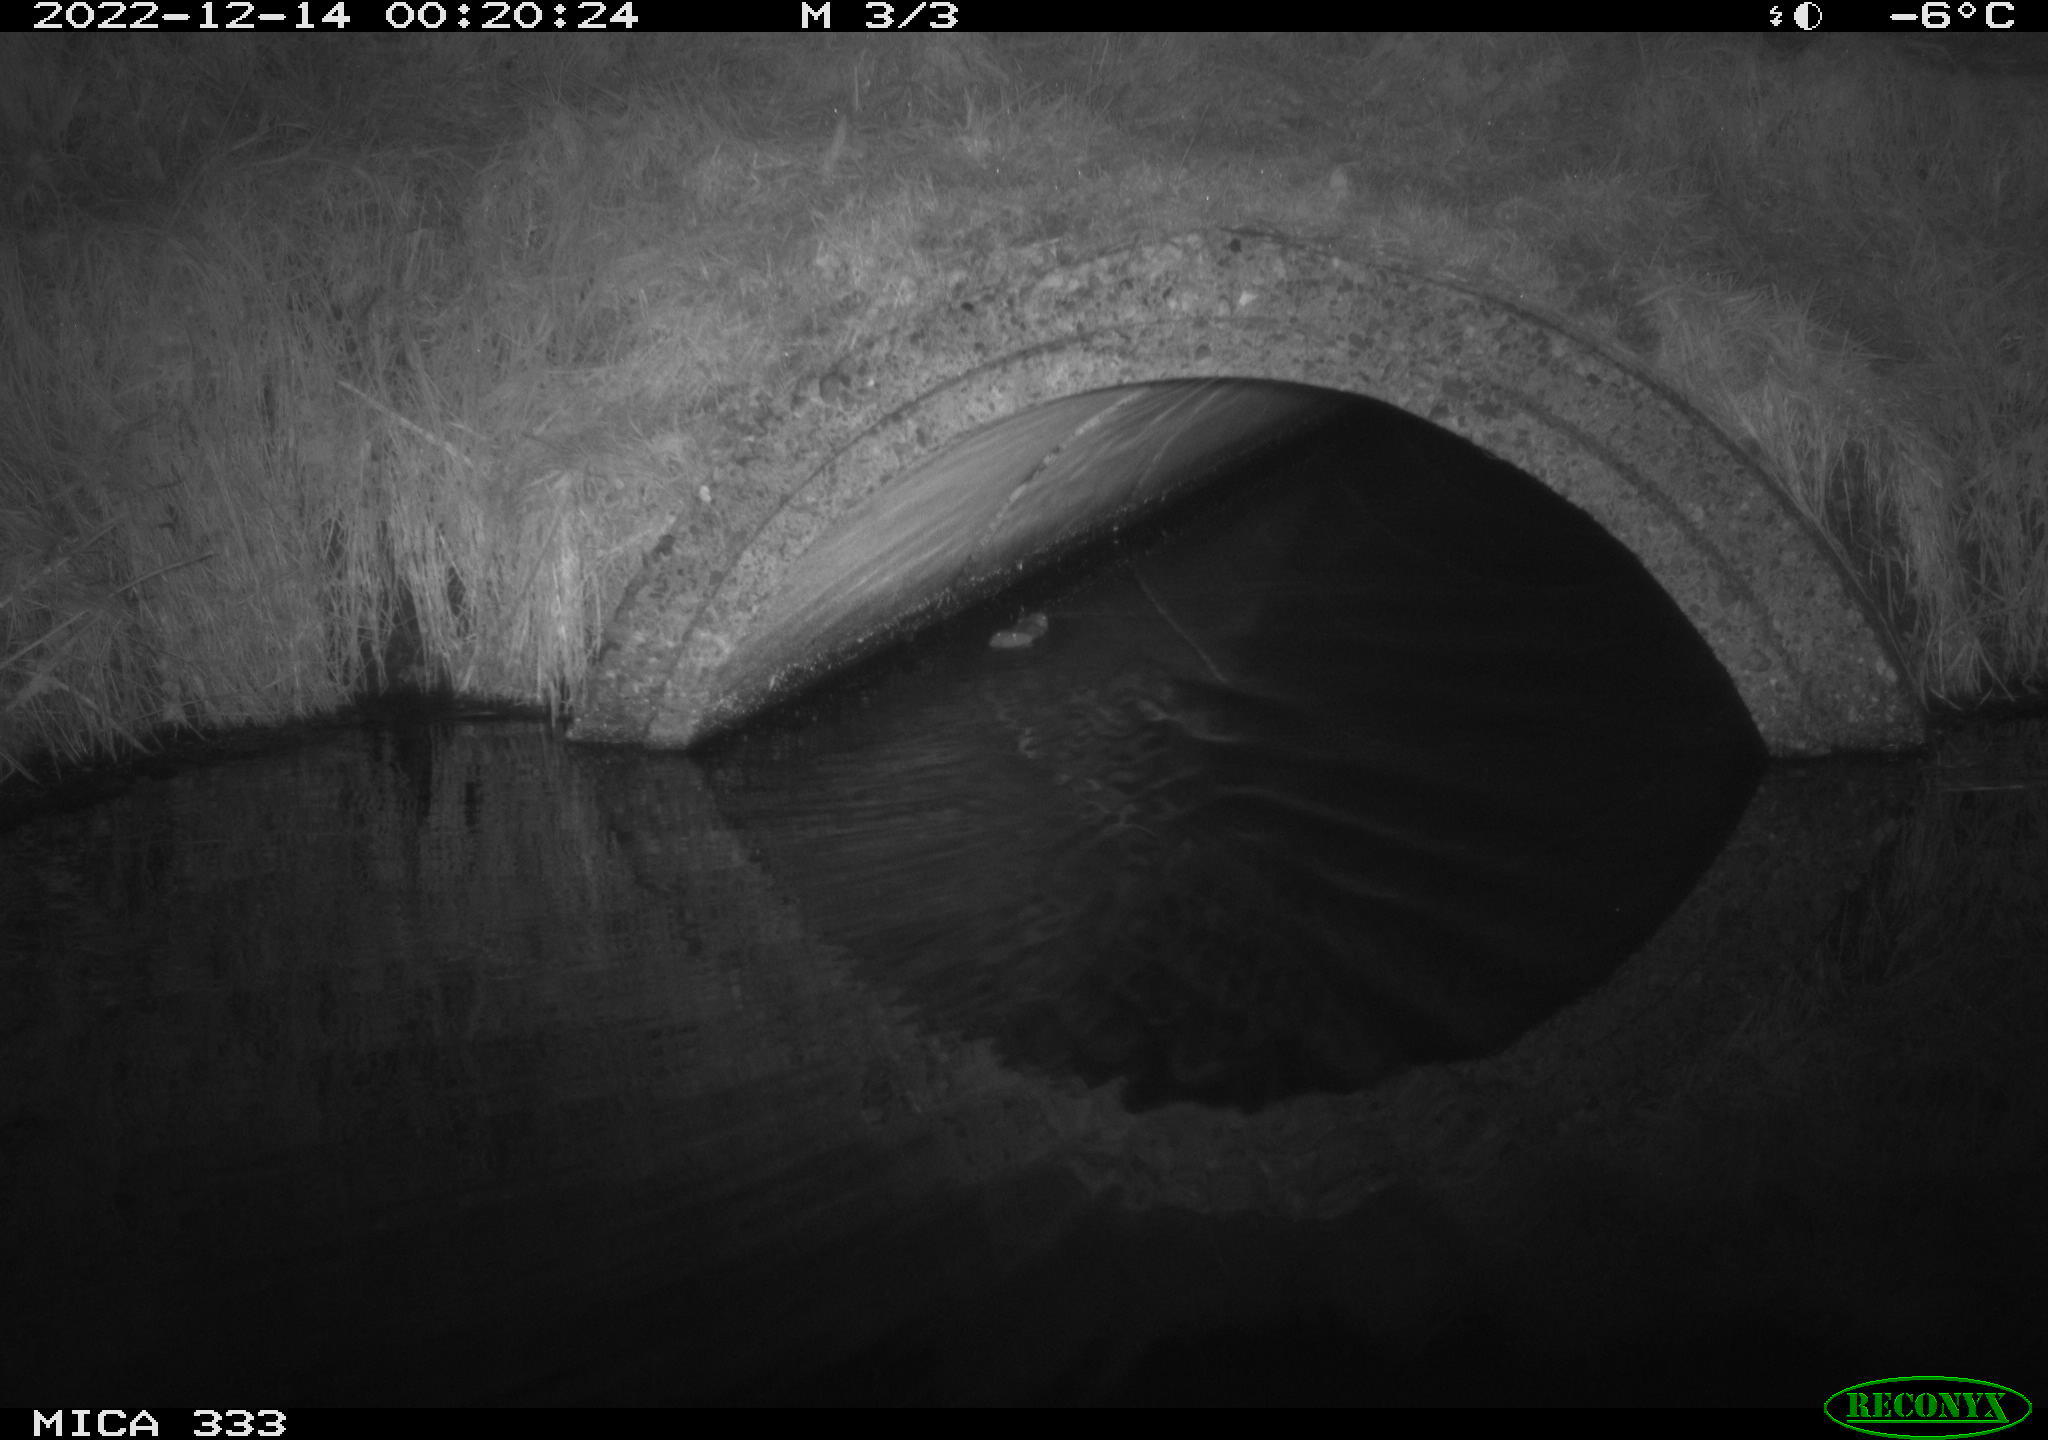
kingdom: Animalia
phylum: Chordata
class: Mammalia
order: Rodentia
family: Muridae
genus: Rattus
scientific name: Rattus norvegicus
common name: Brown rat
